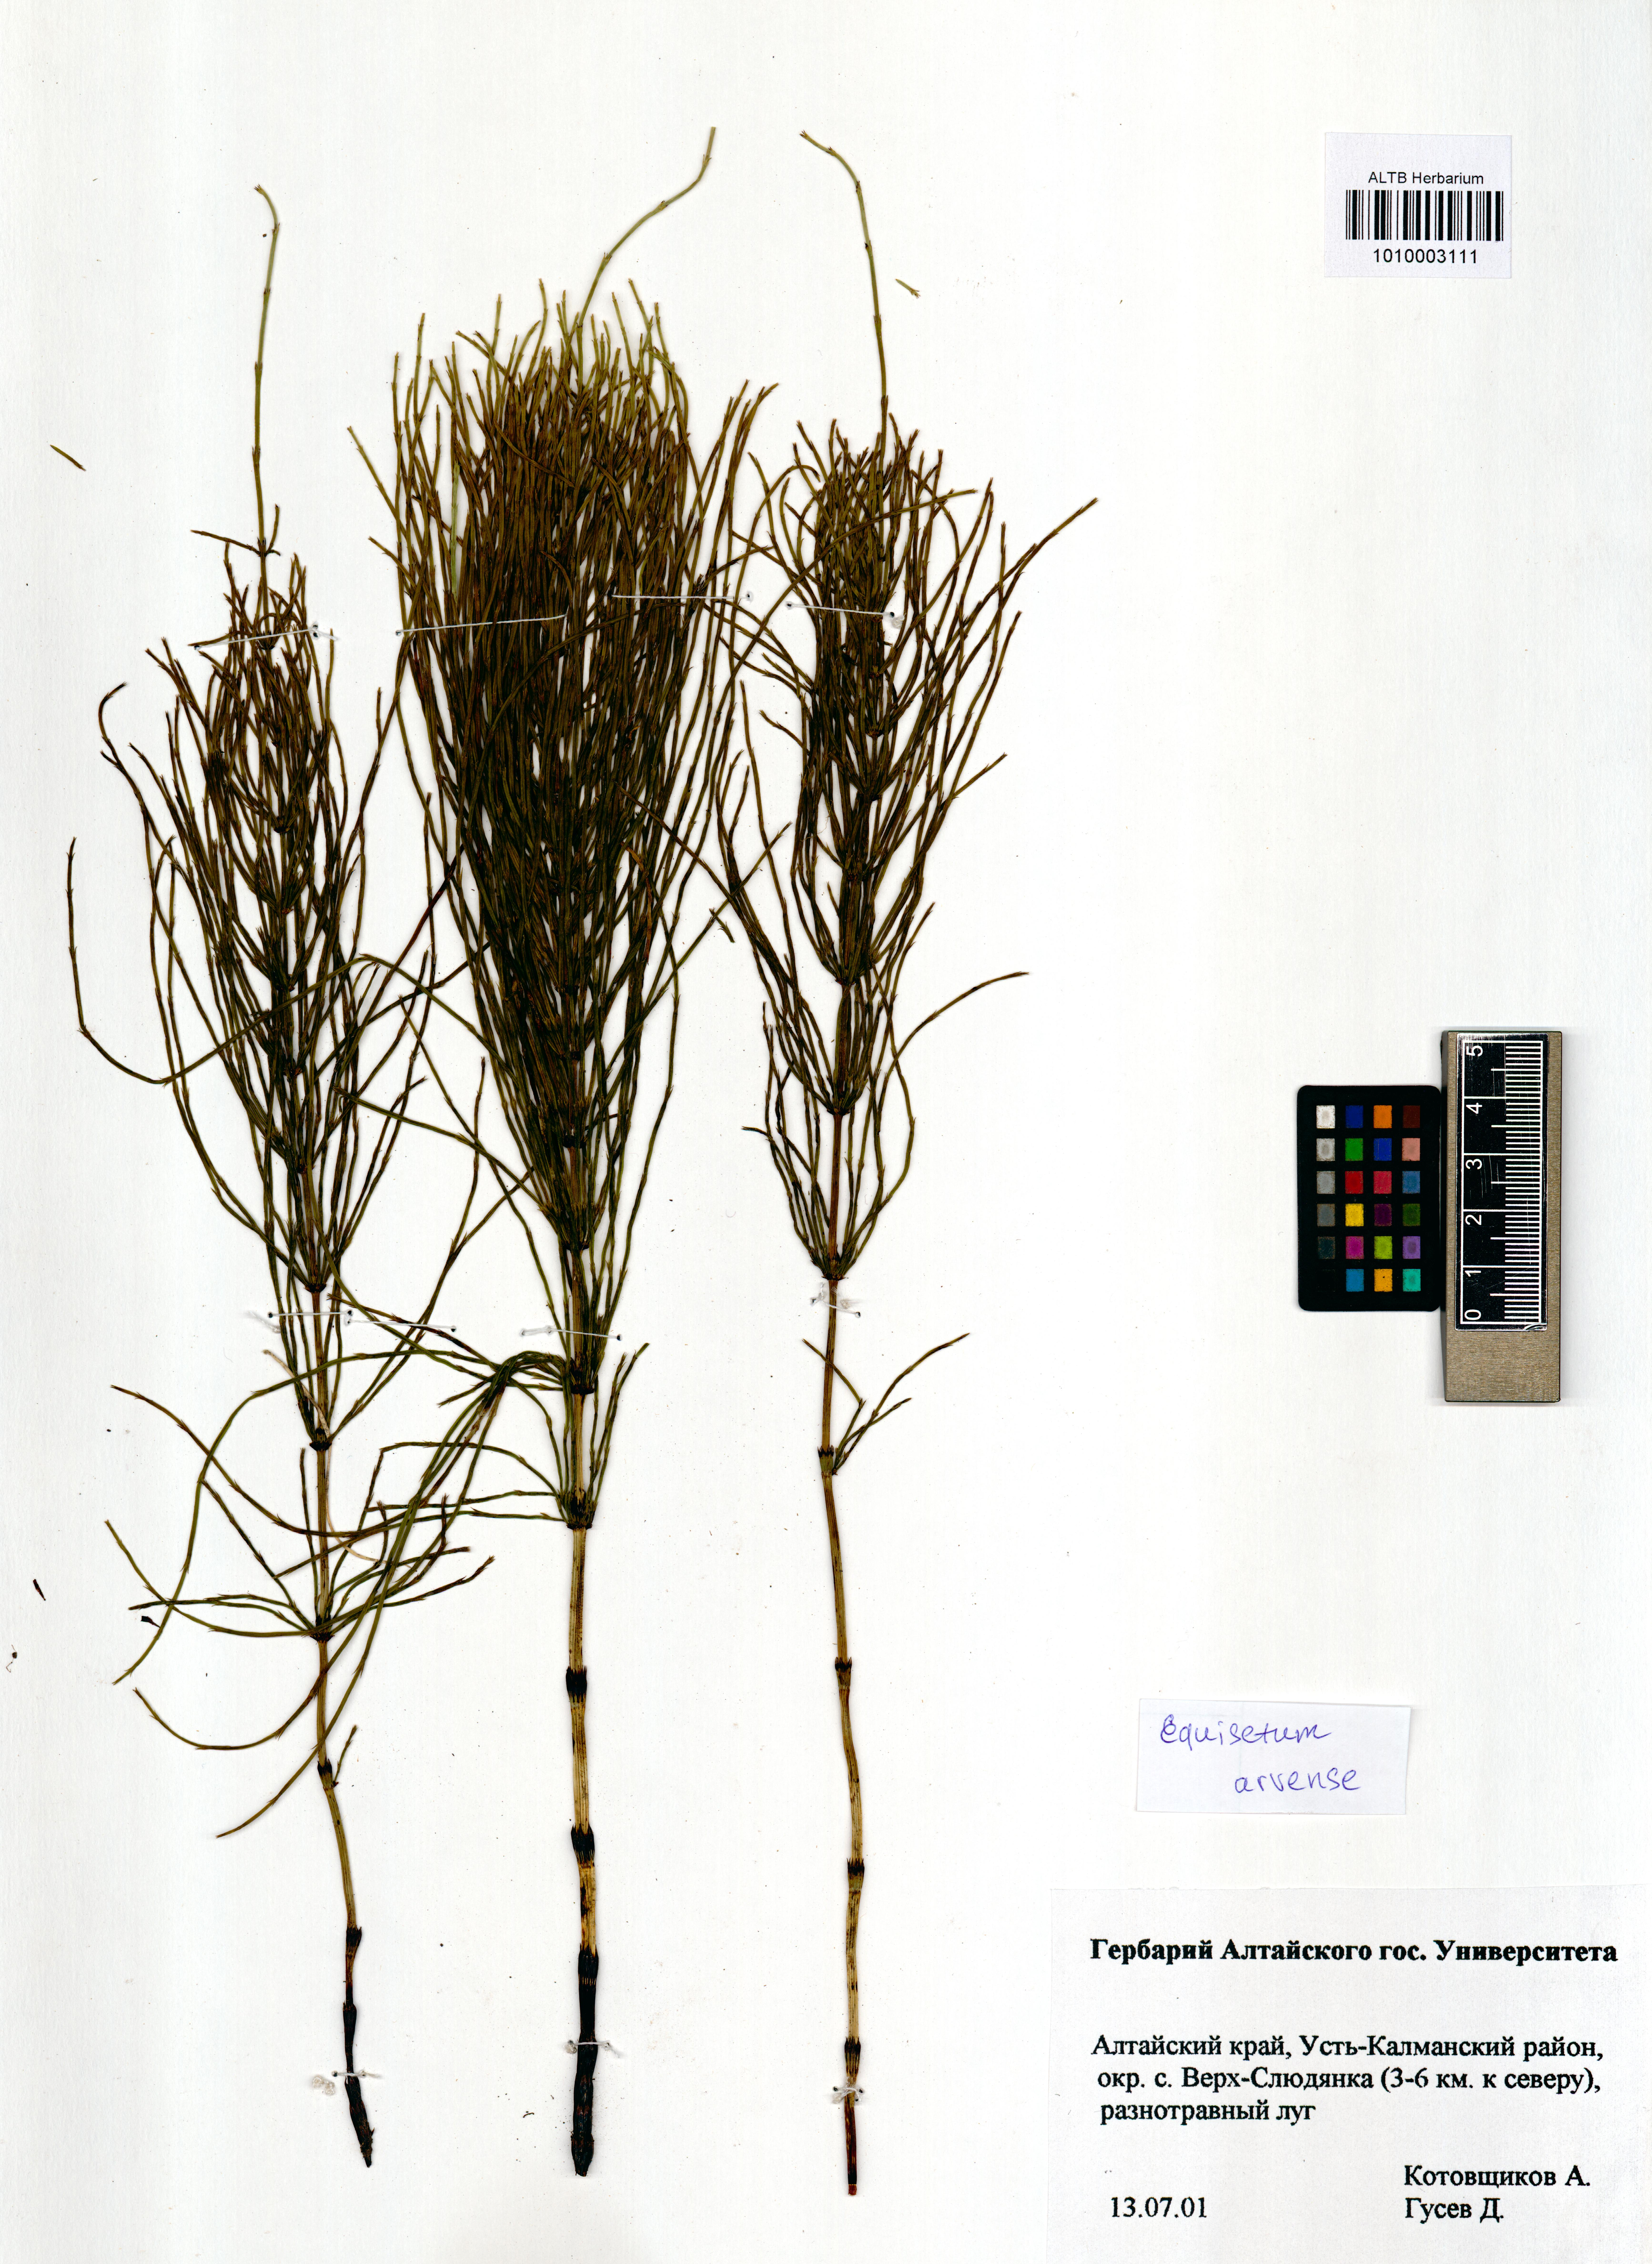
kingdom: Plantae
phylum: Tracheophyta
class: Polypodiopsida
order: Equisetales
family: Equisetaceae
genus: Equisetum
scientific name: Equisetum arvense
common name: Field horsetail
